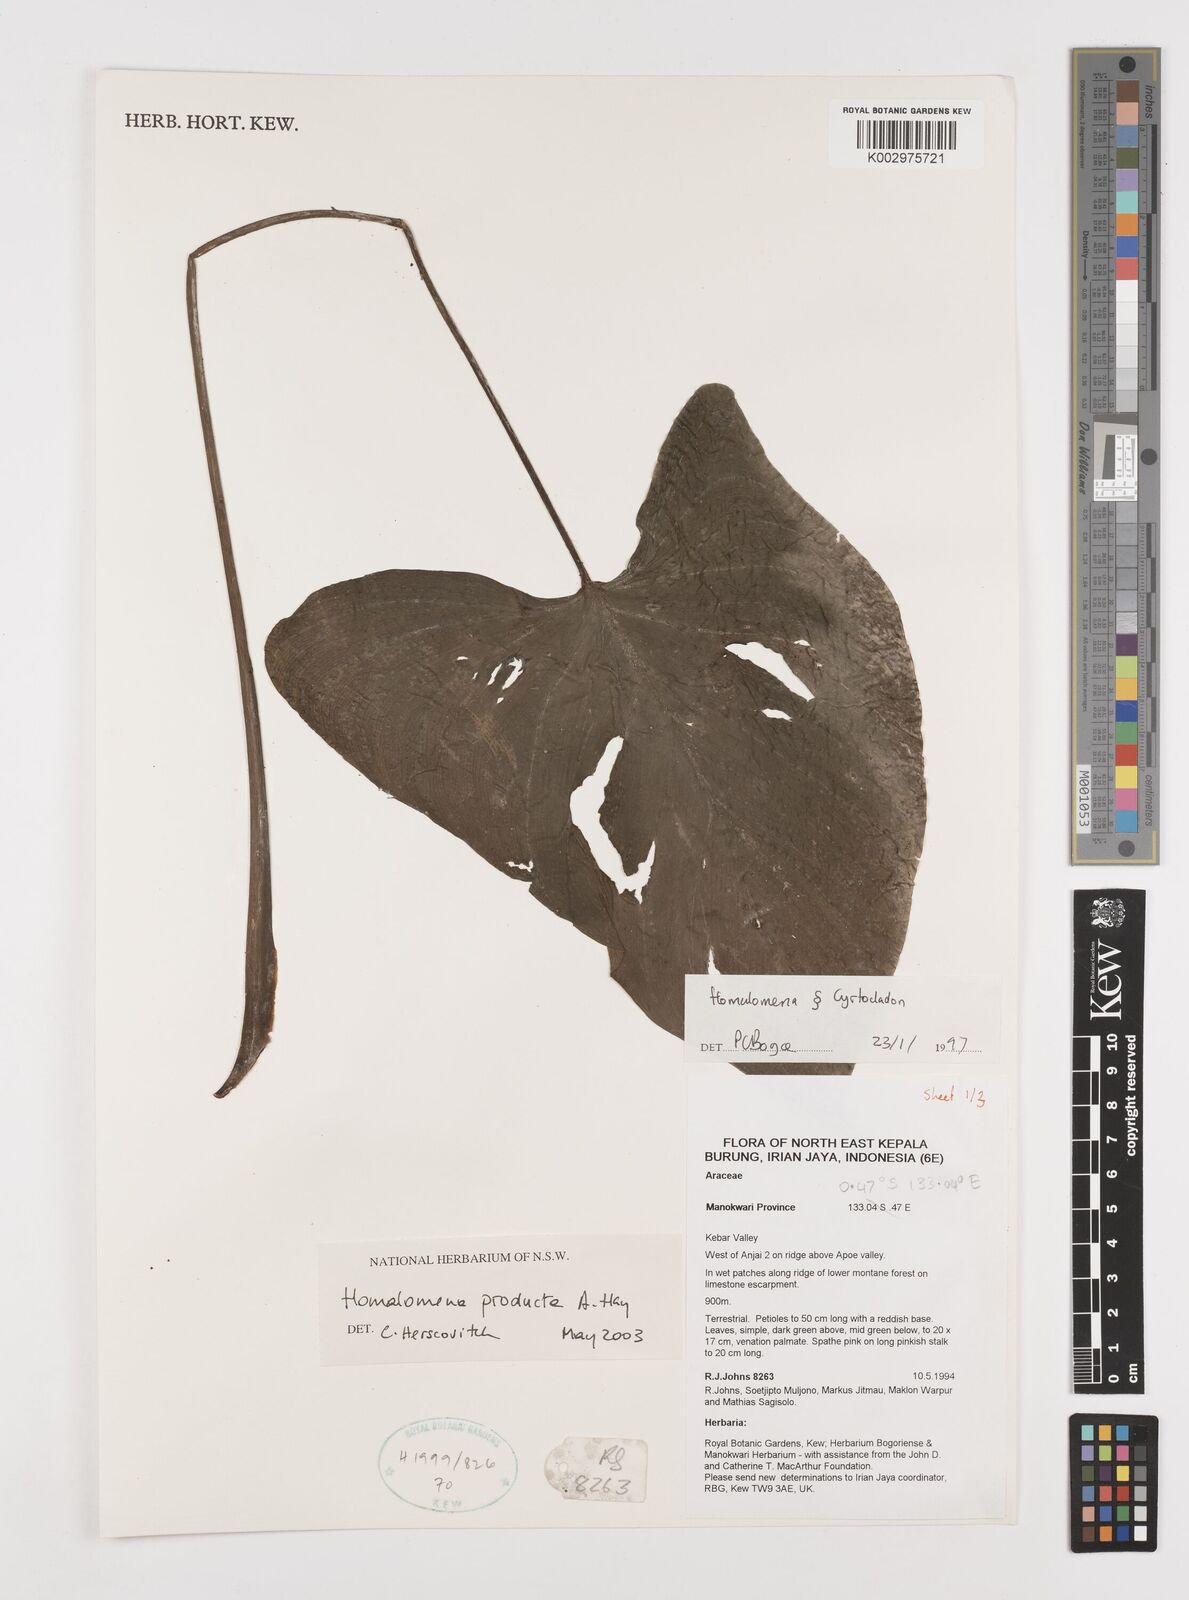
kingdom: Plantae
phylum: Tracheophyta
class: Liliopsida
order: Alismatales
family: Araceae
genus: Homalomena
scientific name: Homalomena producta
